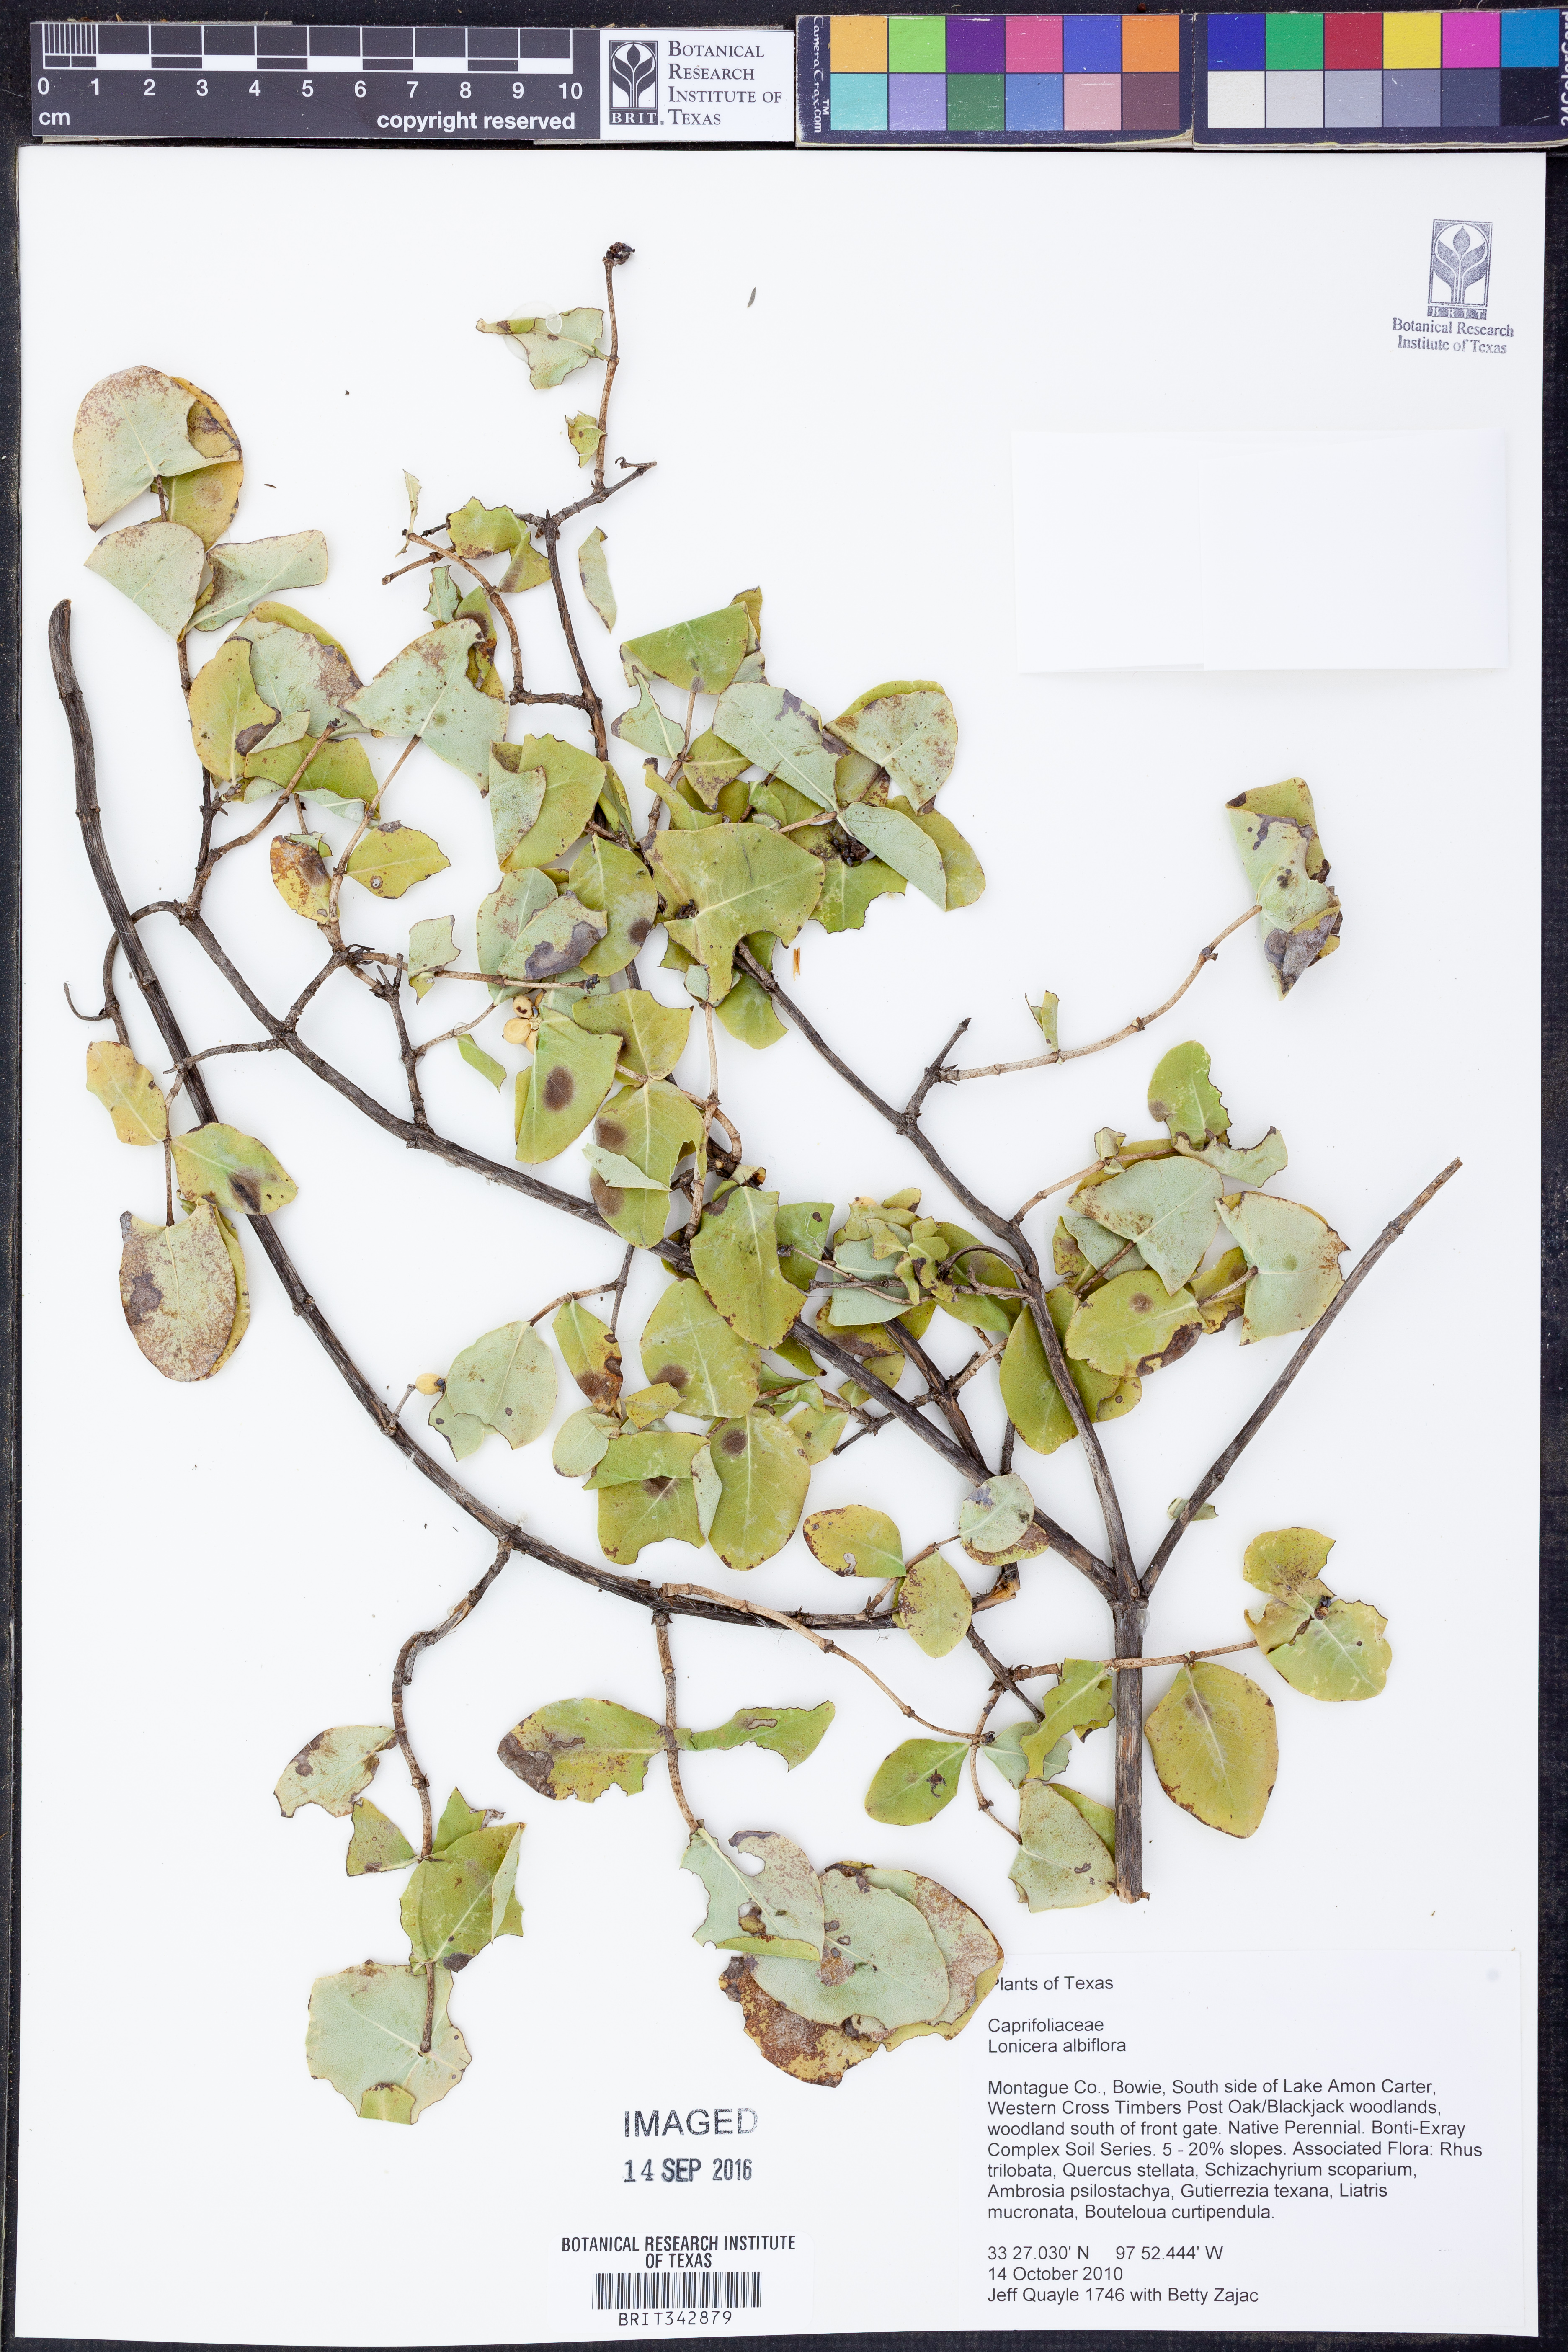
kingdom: Plantae
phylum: Tracheophyta
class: Magnoliopsida
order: Dipsacales
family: Caprifoliaceae
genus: Lonicera
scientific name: Lonicera albiflora
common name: White honeysuckle
